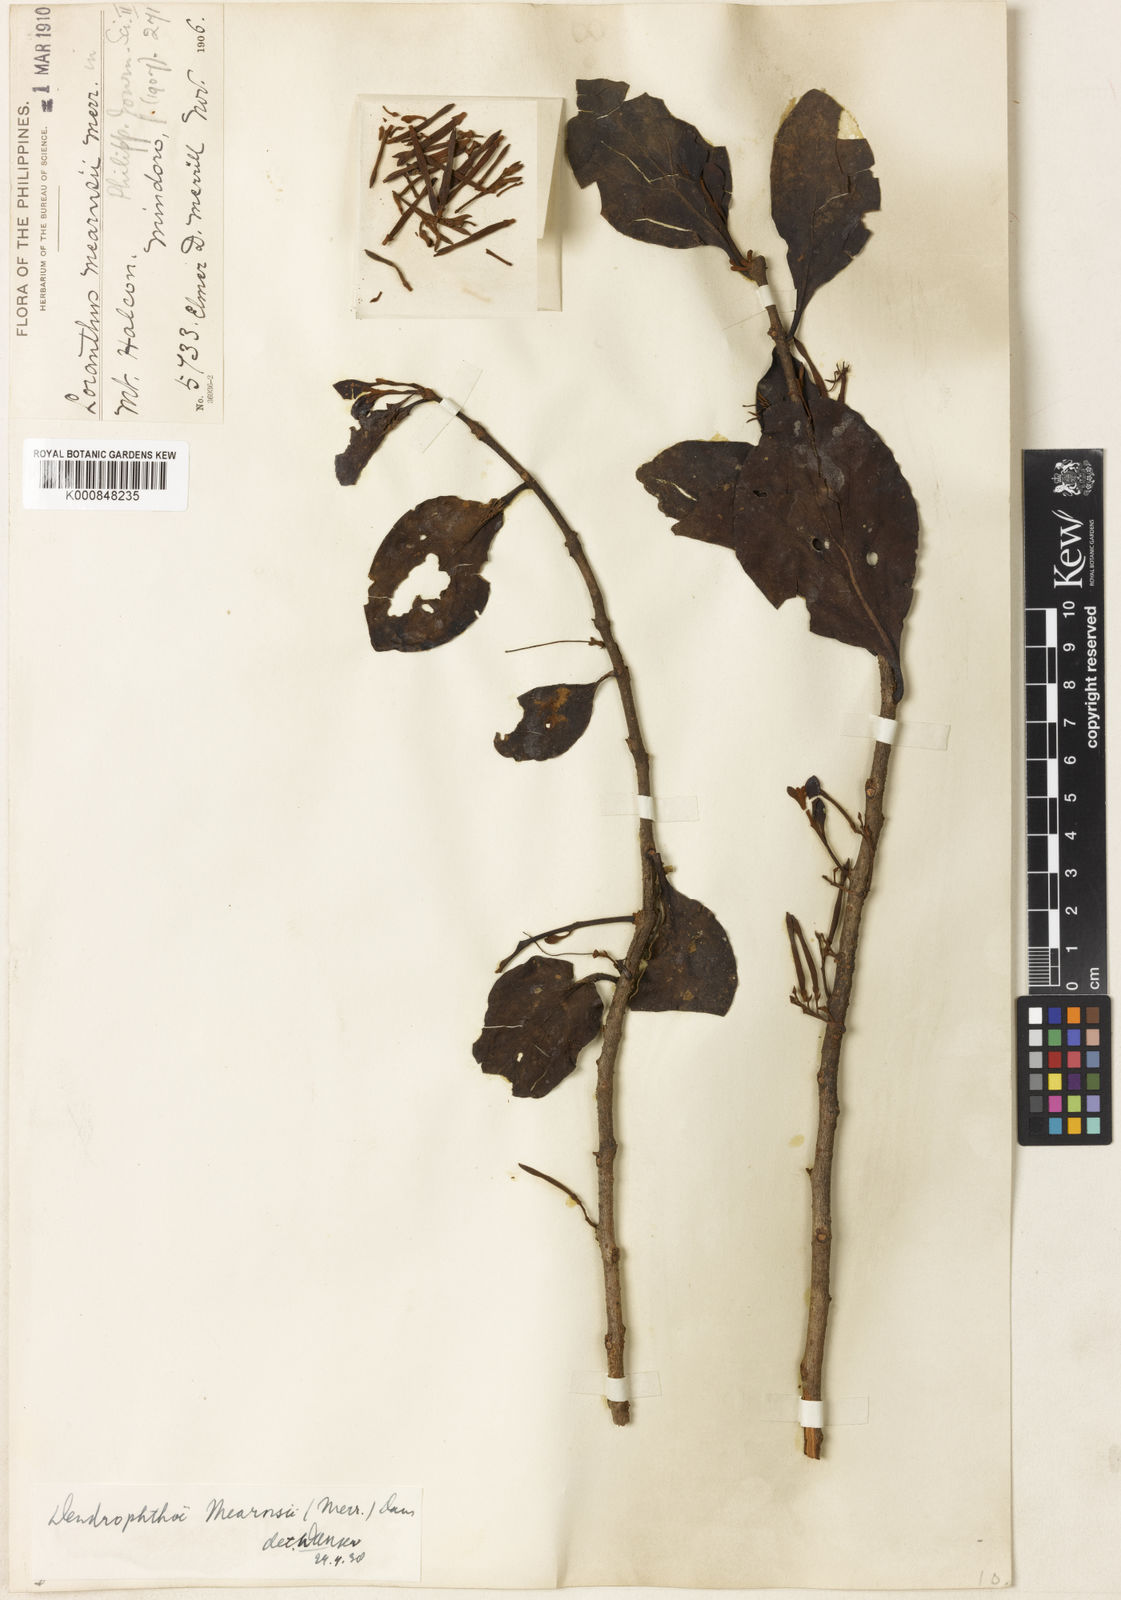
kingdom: Plantae
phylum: Tracheophyta
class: Magnoliopsida
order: Santalales
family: Loranthaceae
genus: Dendrophthoe
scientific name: Dendrophthoe mearnsii
